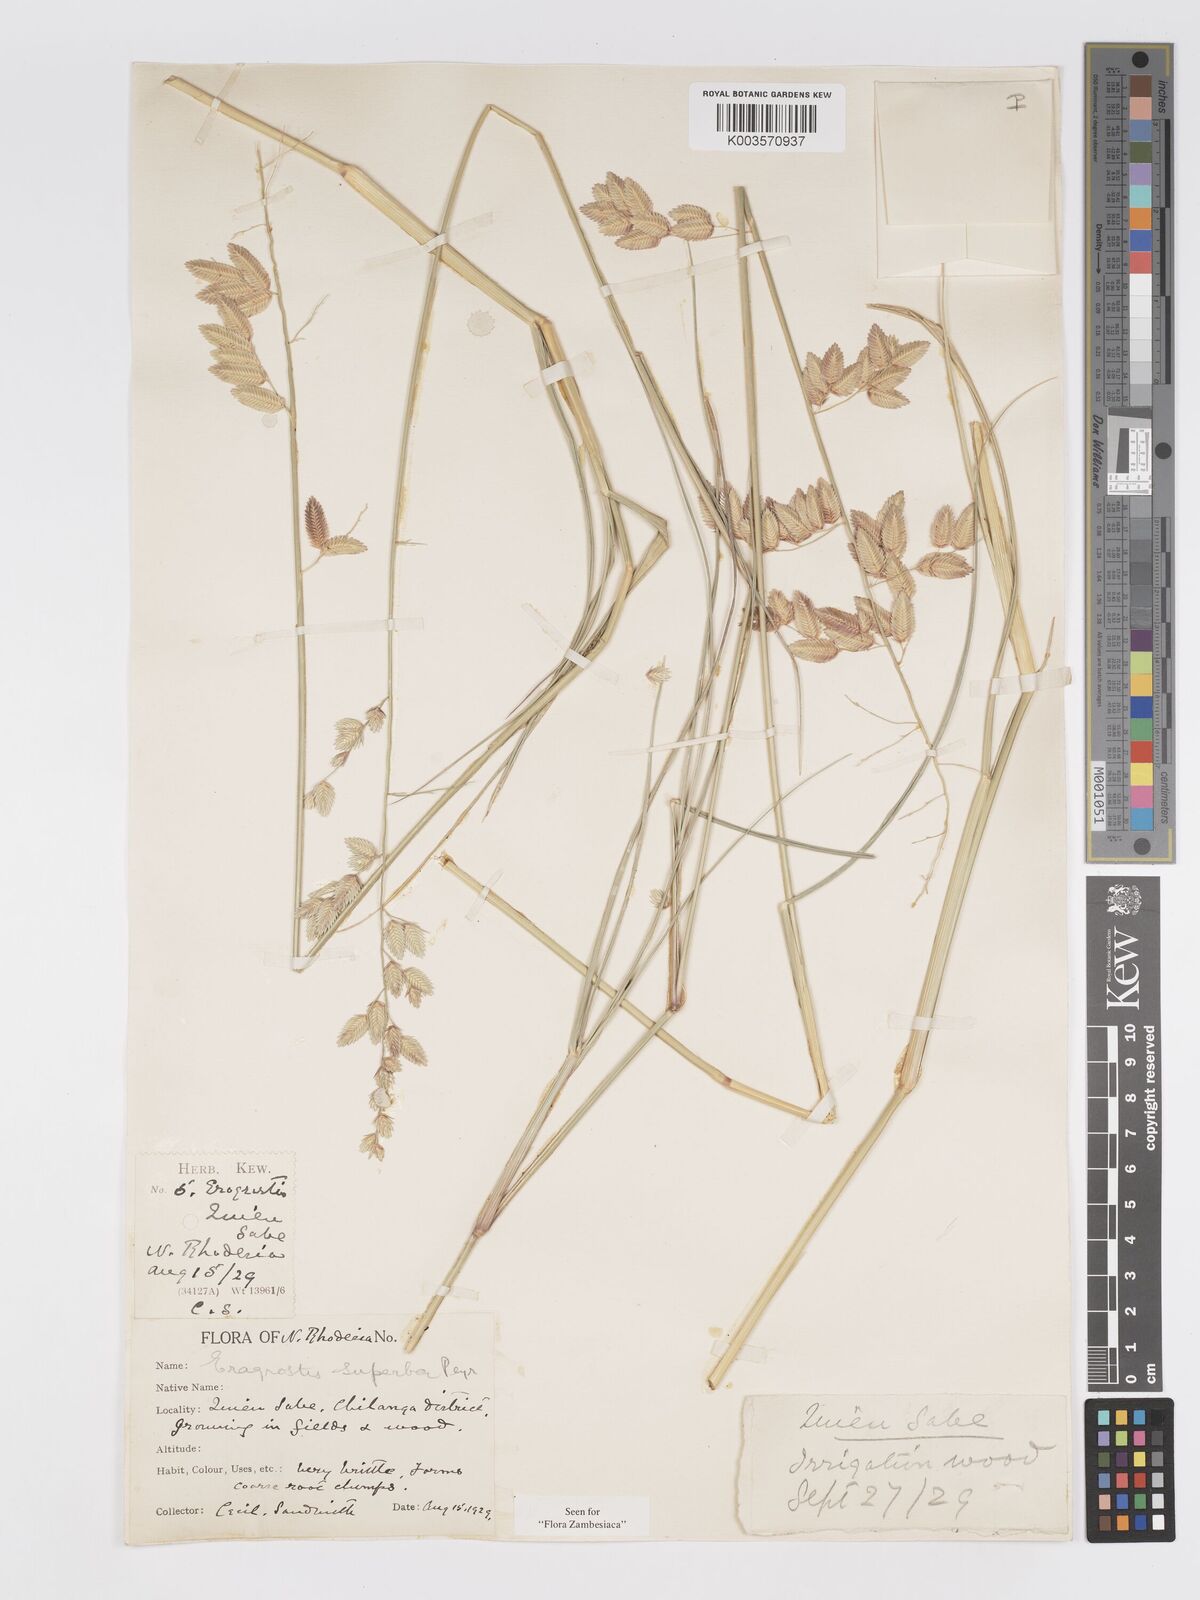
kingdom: Plantae
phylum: Tracheophyta
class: Liliopsida
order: Poales
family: Poaceae
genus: Eragrostis
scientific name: Eragrostis superba
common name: Wilman lovegrass
